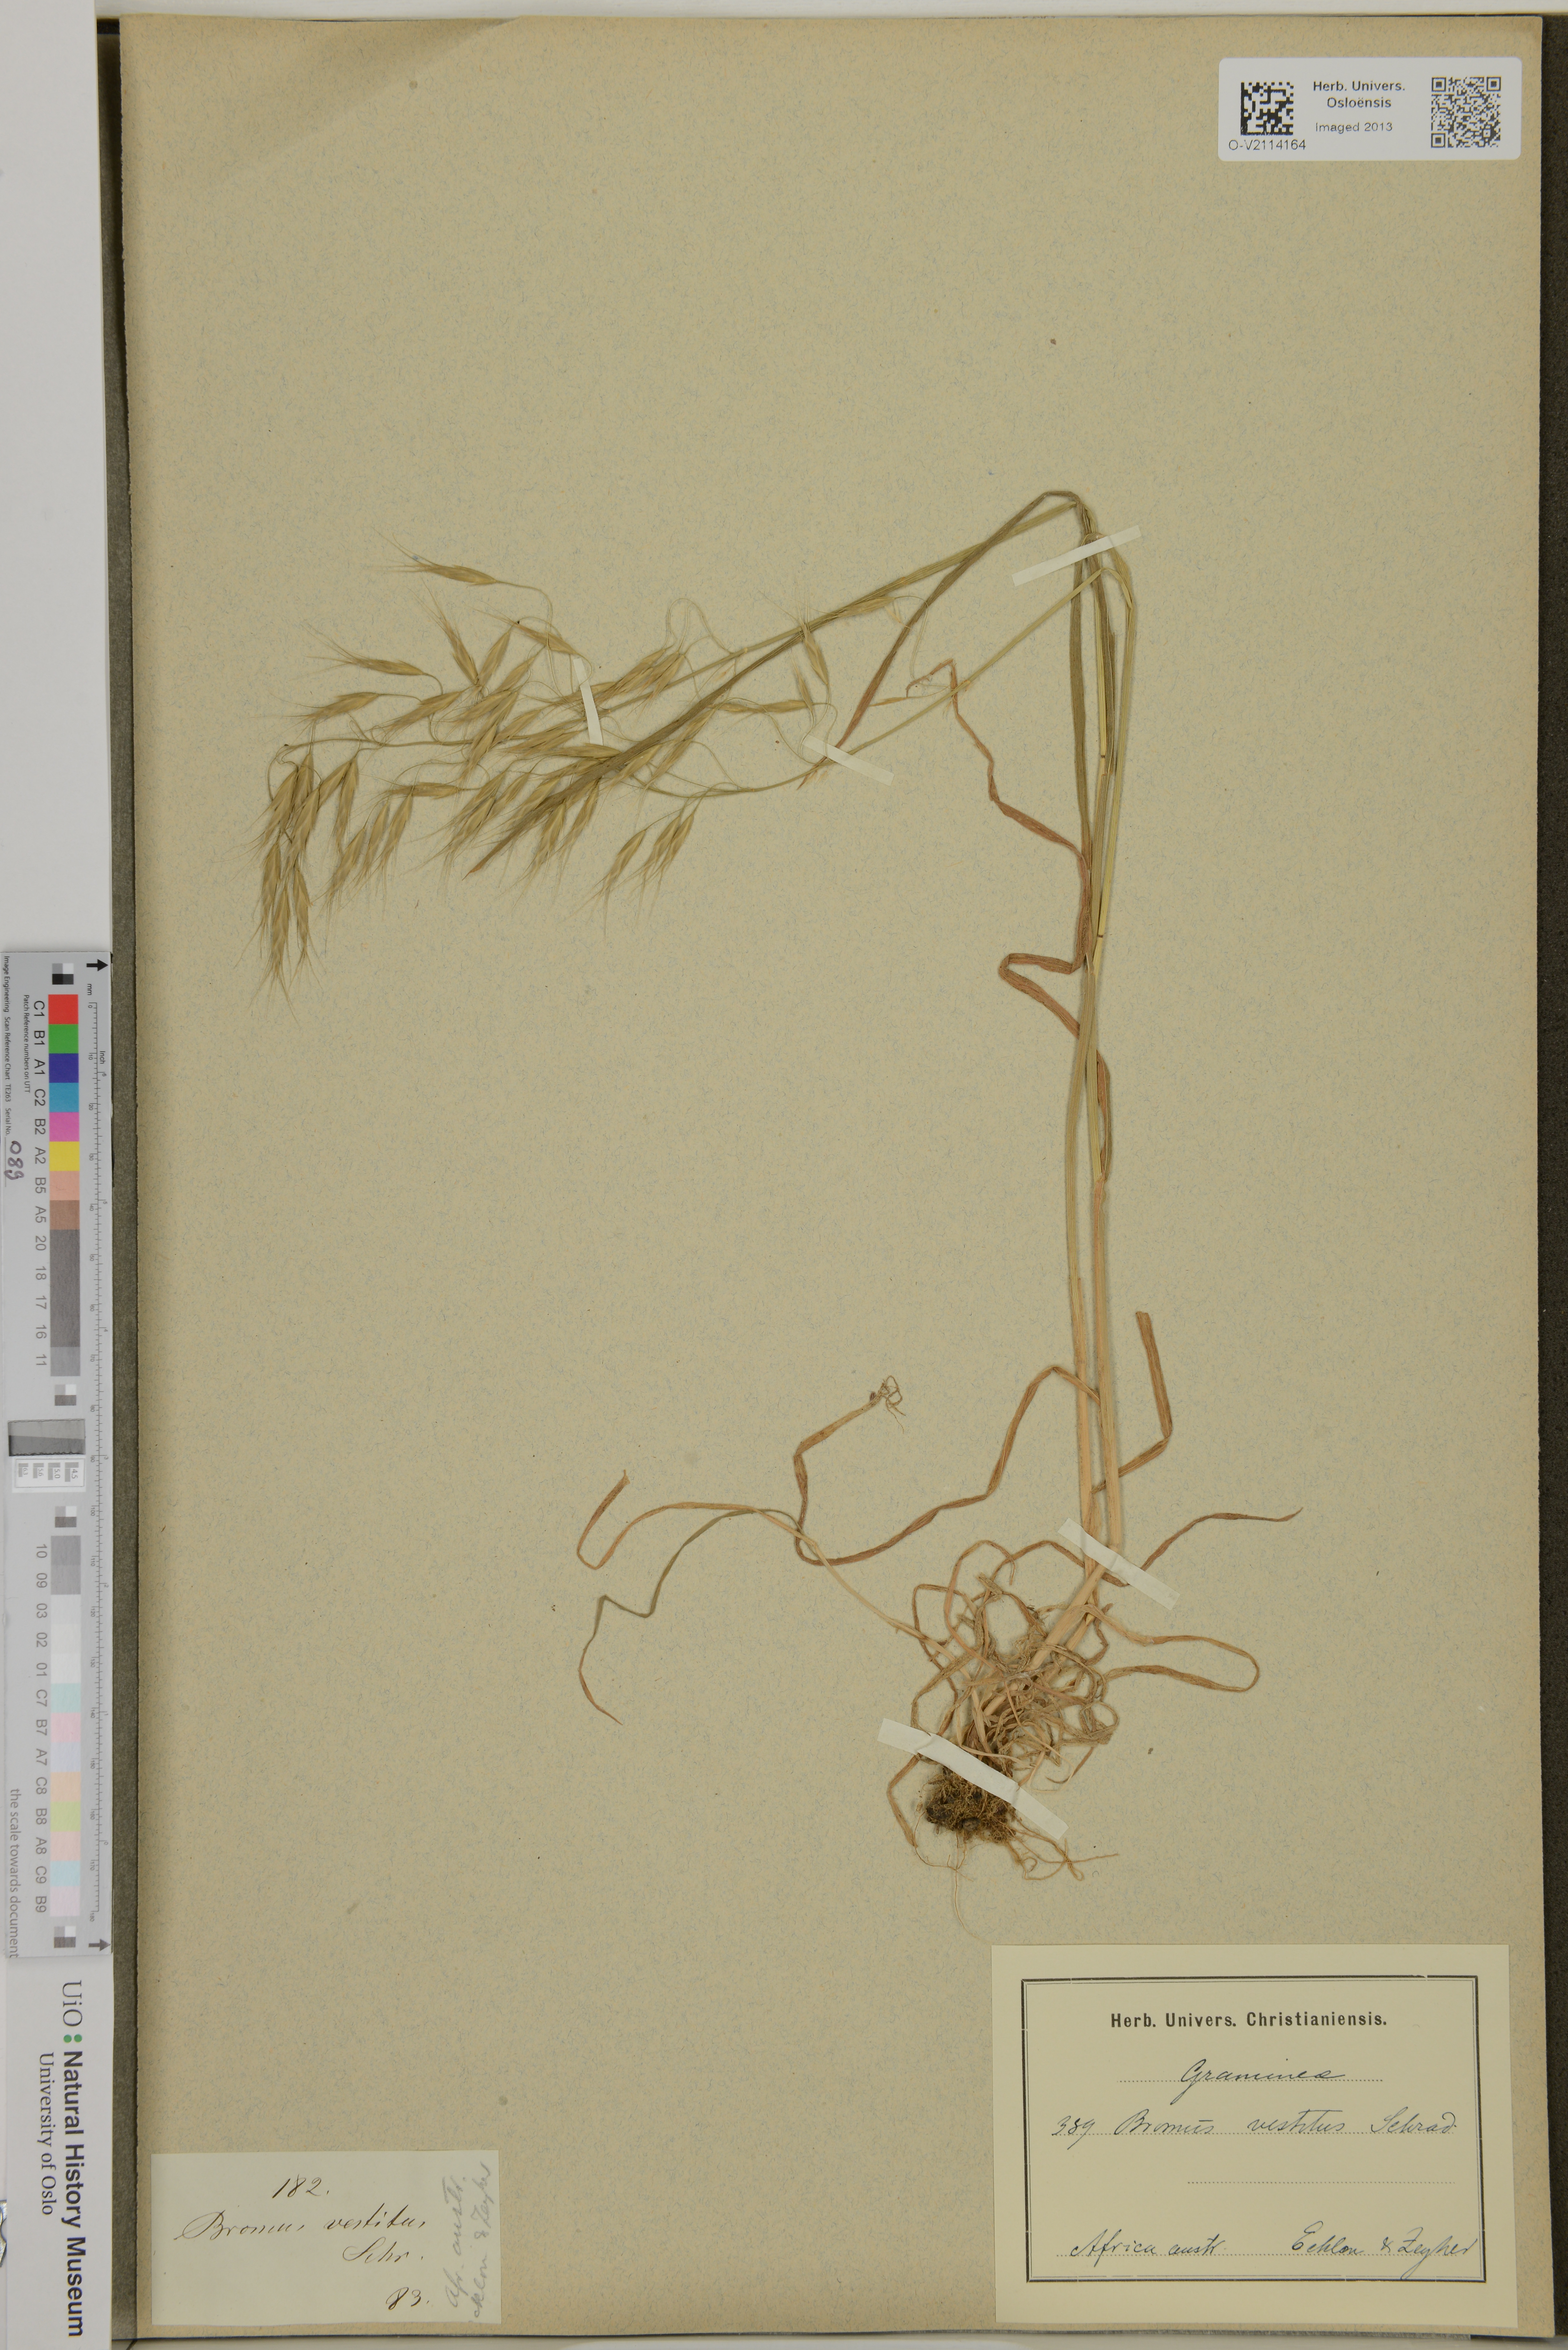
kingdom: Plantae
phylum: Tracheophyta
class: Liliopsida
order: Poales
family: Poaceae
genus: Bromus
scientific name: Bromus pectinatus
